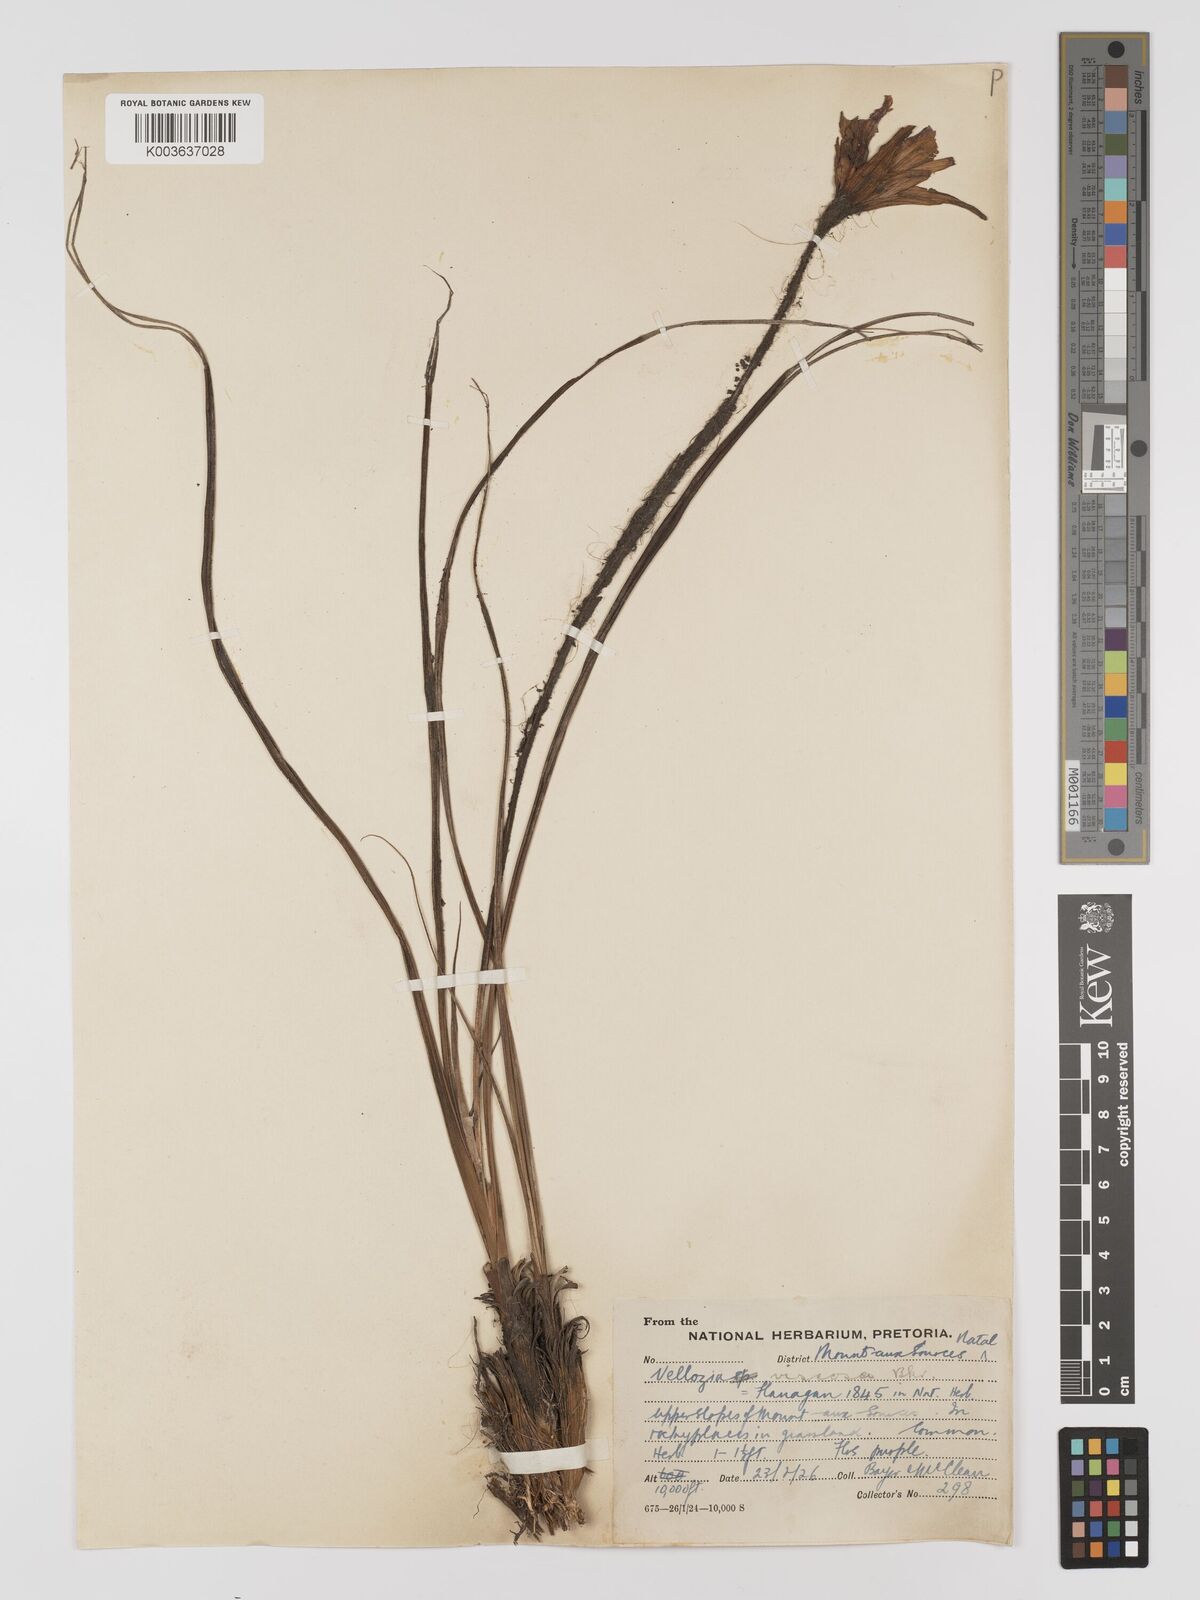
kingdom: Plantae
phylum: Tracheophyta
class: Liliopsida
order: Pandanales
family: Velloziaceae
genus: Xerophyta
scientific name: Xerophyta viscosa
